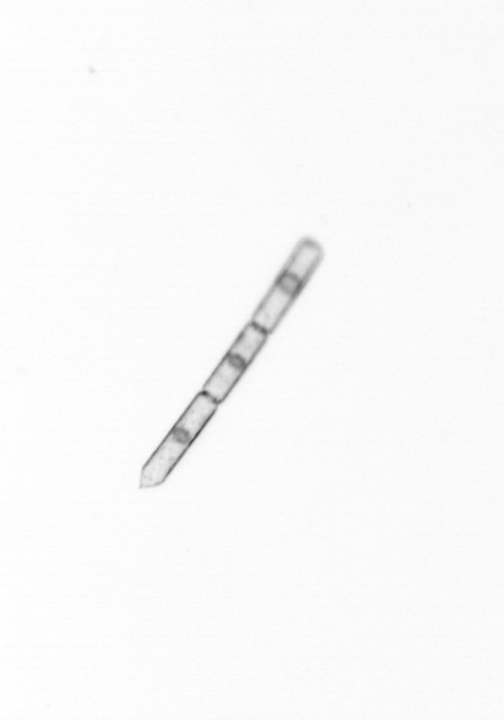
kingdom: Chromista
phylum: Ochrophyta
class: Bacillariophyceae
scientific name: Bacillariophyceae
